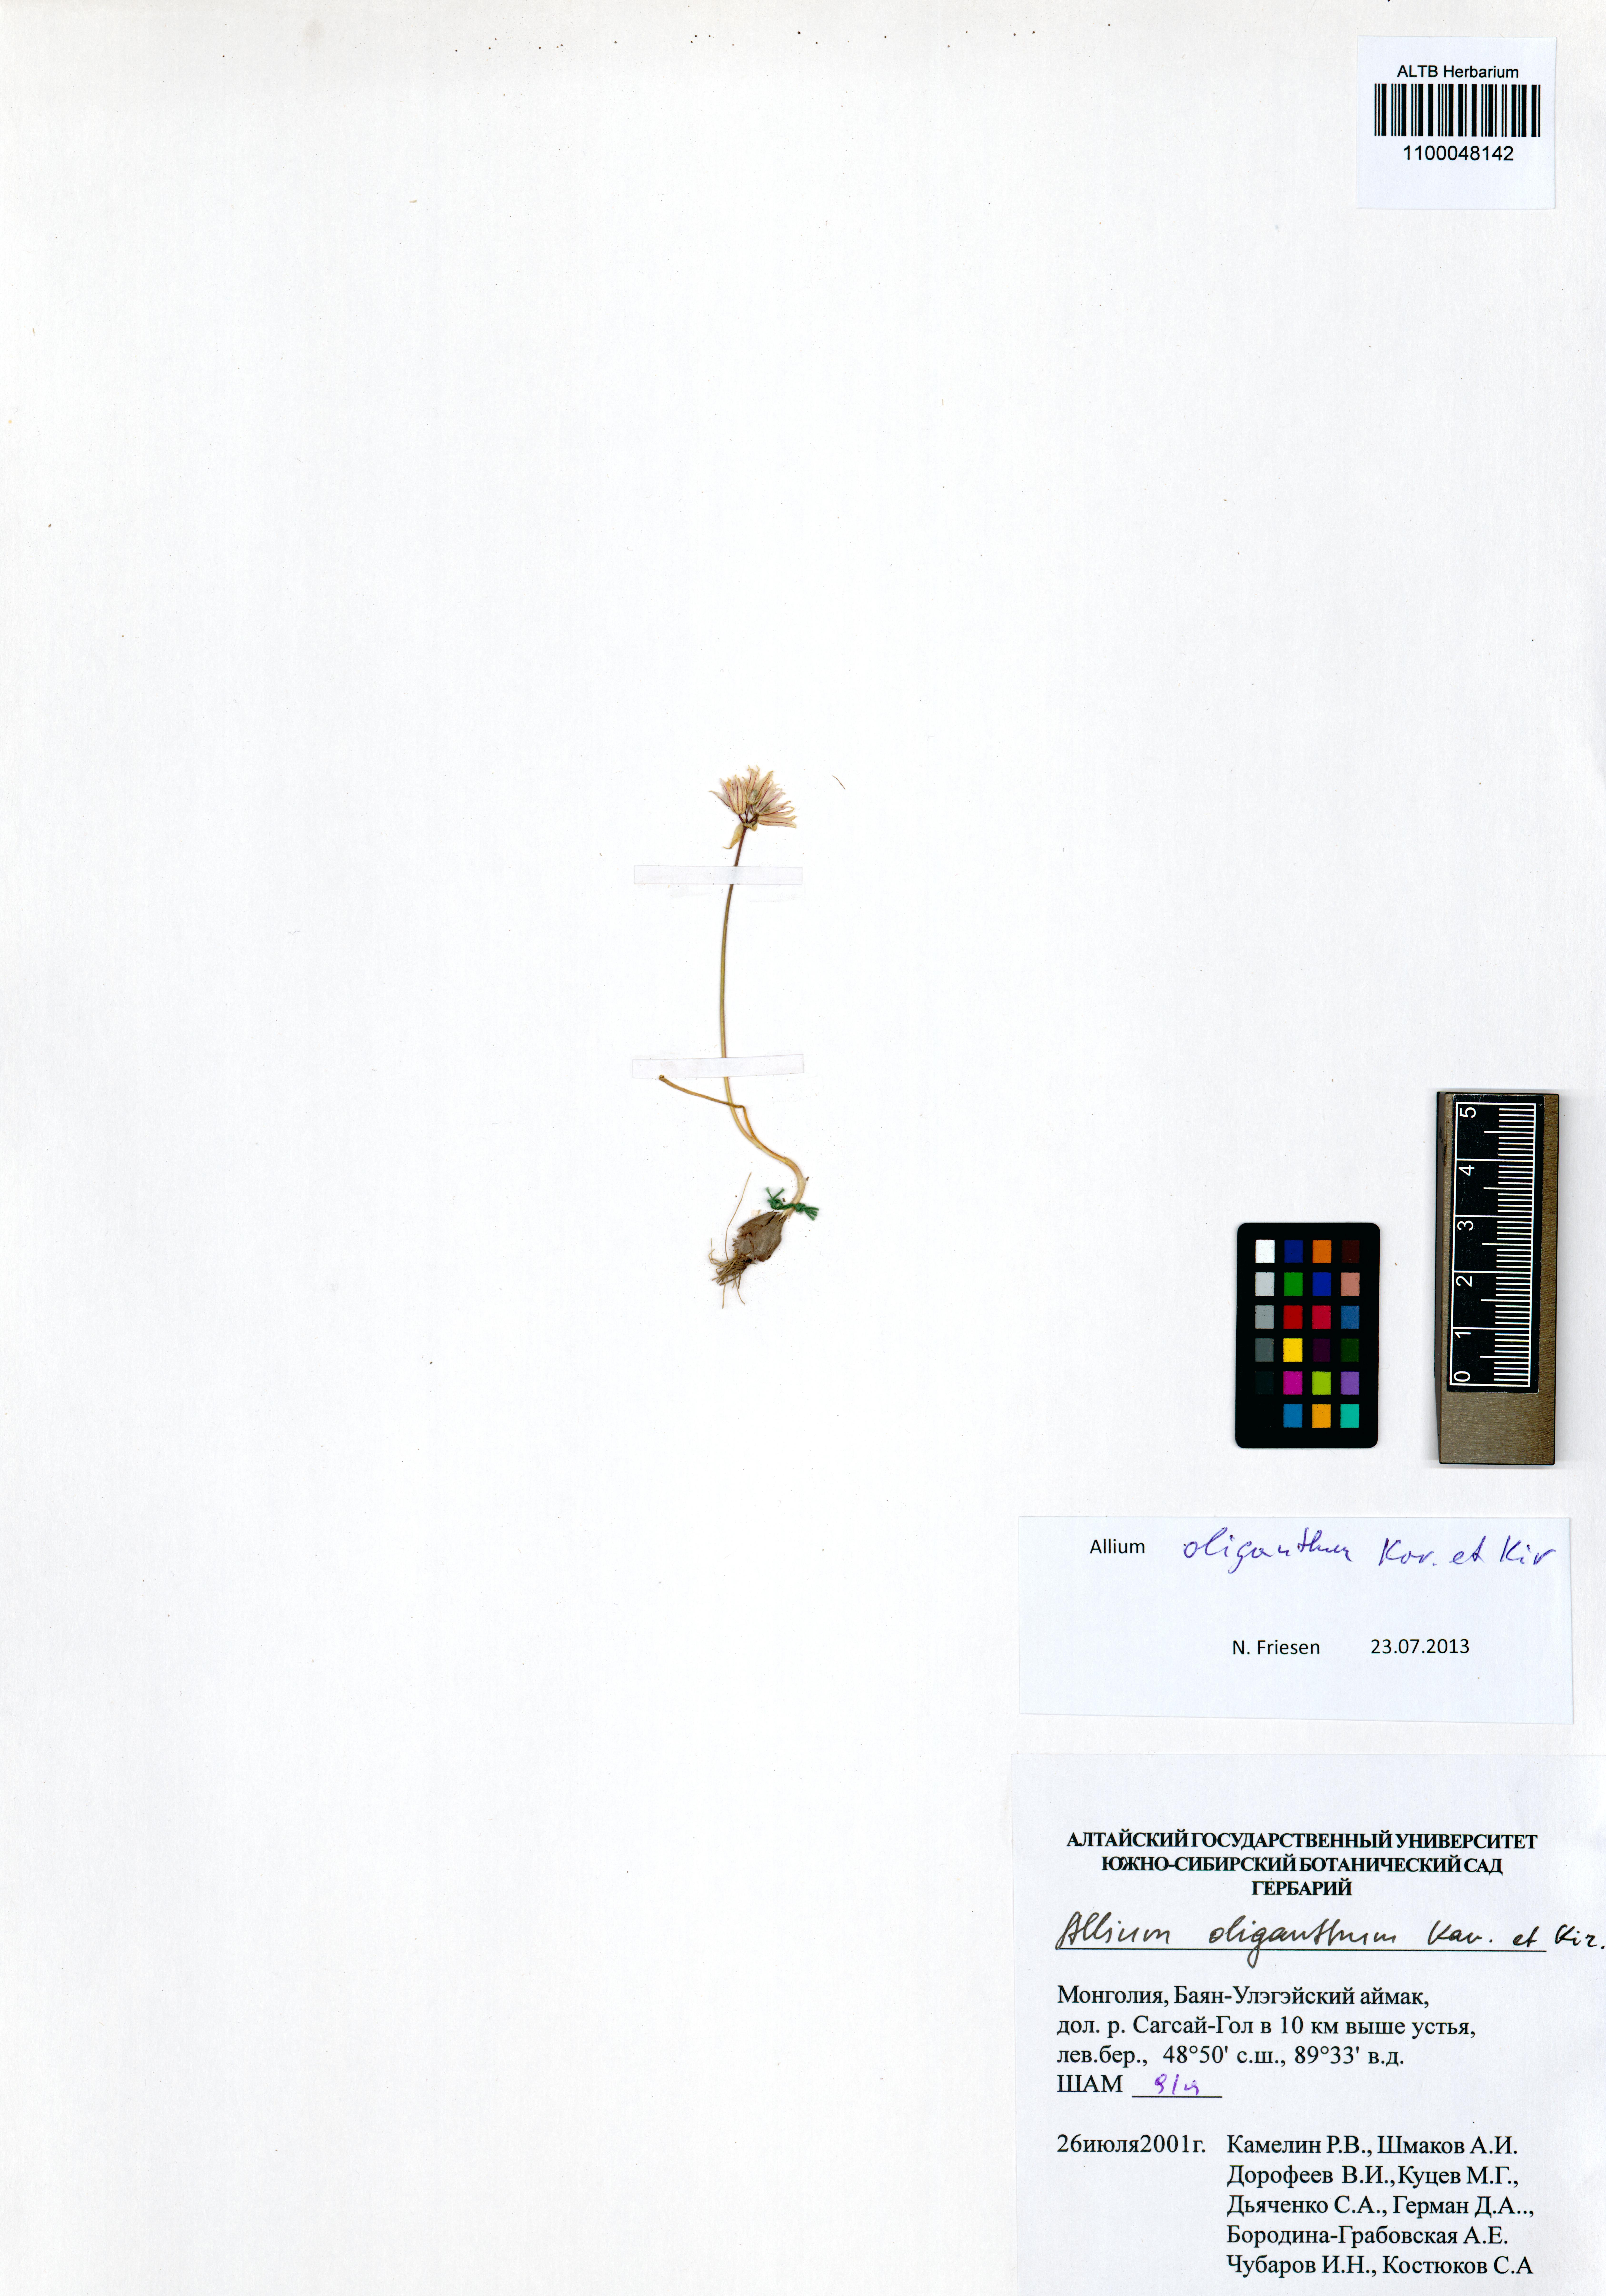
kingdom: Plantae
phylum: Tracheophyta
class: Liliopsida
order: Asparagales
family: Amaryllidaceae
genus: Allium
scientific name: Allium oliganthum
